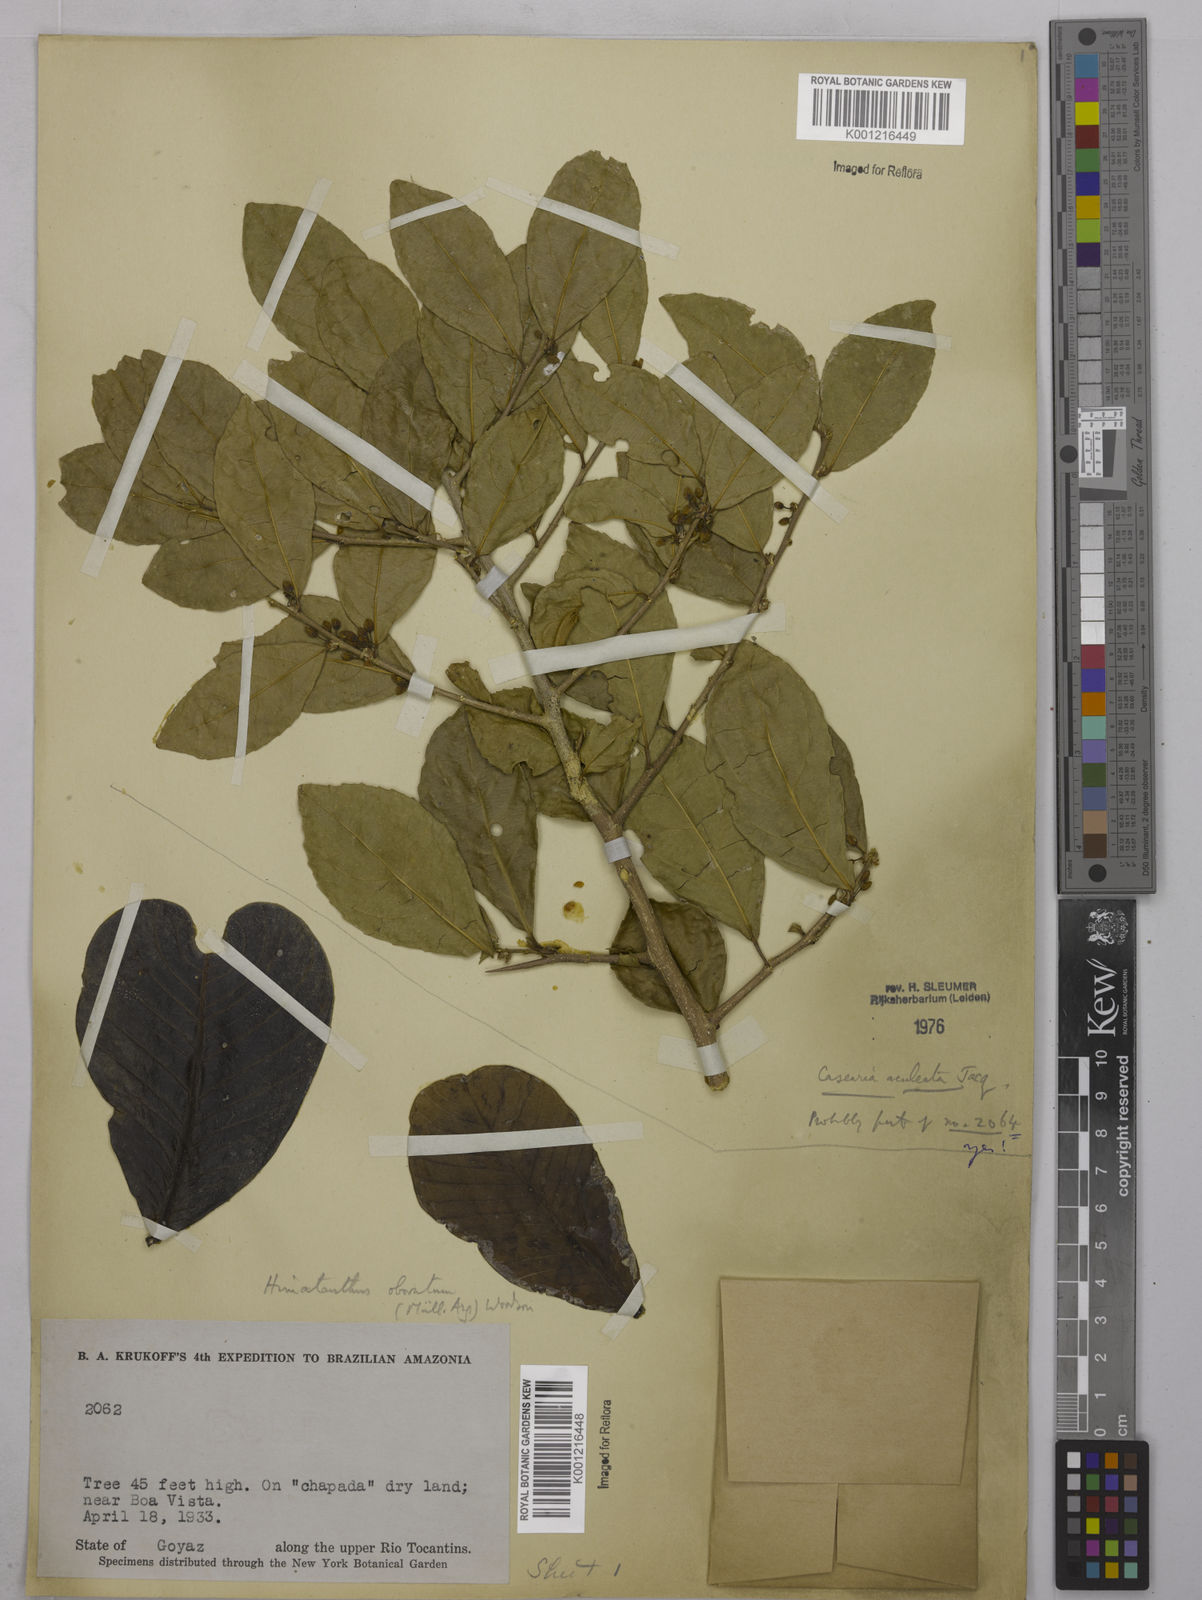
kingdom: Plantae
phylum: Tracheophyta
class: Magnoliopsida
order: Malpighiales
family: Salicaceae
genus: Casearia
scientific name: Casearia aculeata
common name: Cockspur
